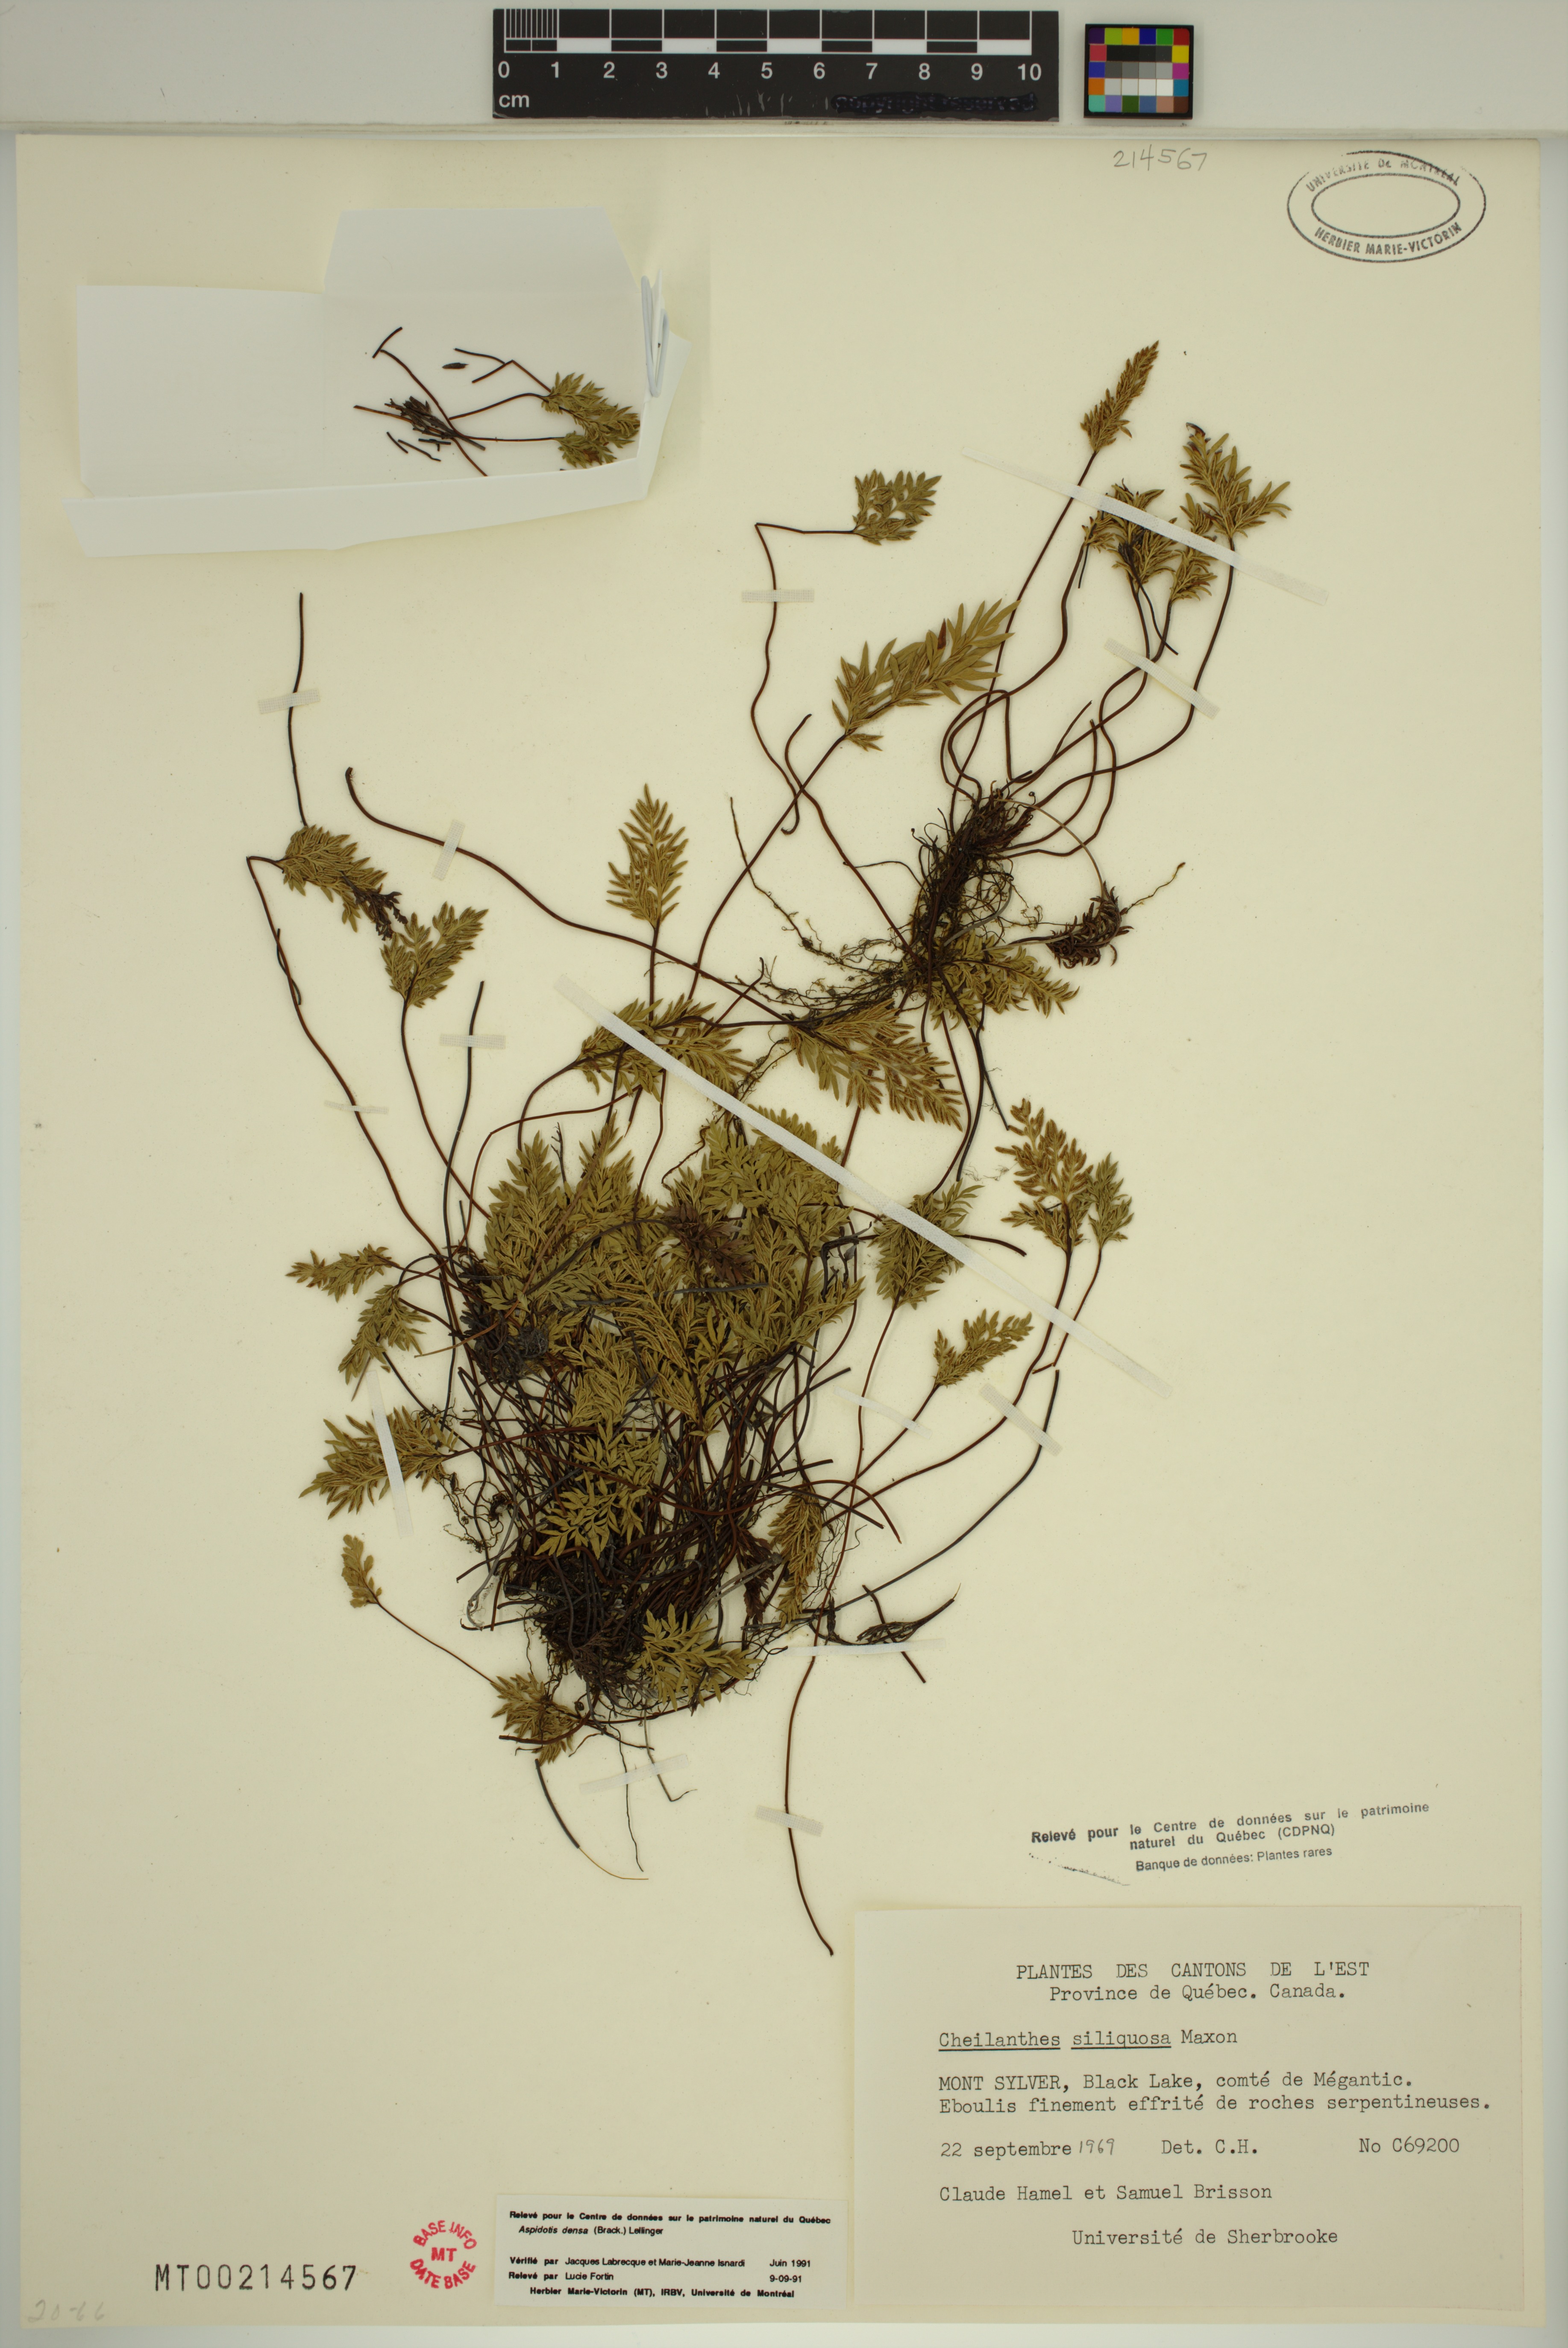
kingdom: Plantae
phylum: Tracheophyta
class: Polypodiopsida
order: Polypodiales
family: Pteridaceae
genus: Aspidotis
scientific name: Aspidotis densa
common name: Indian's dream
